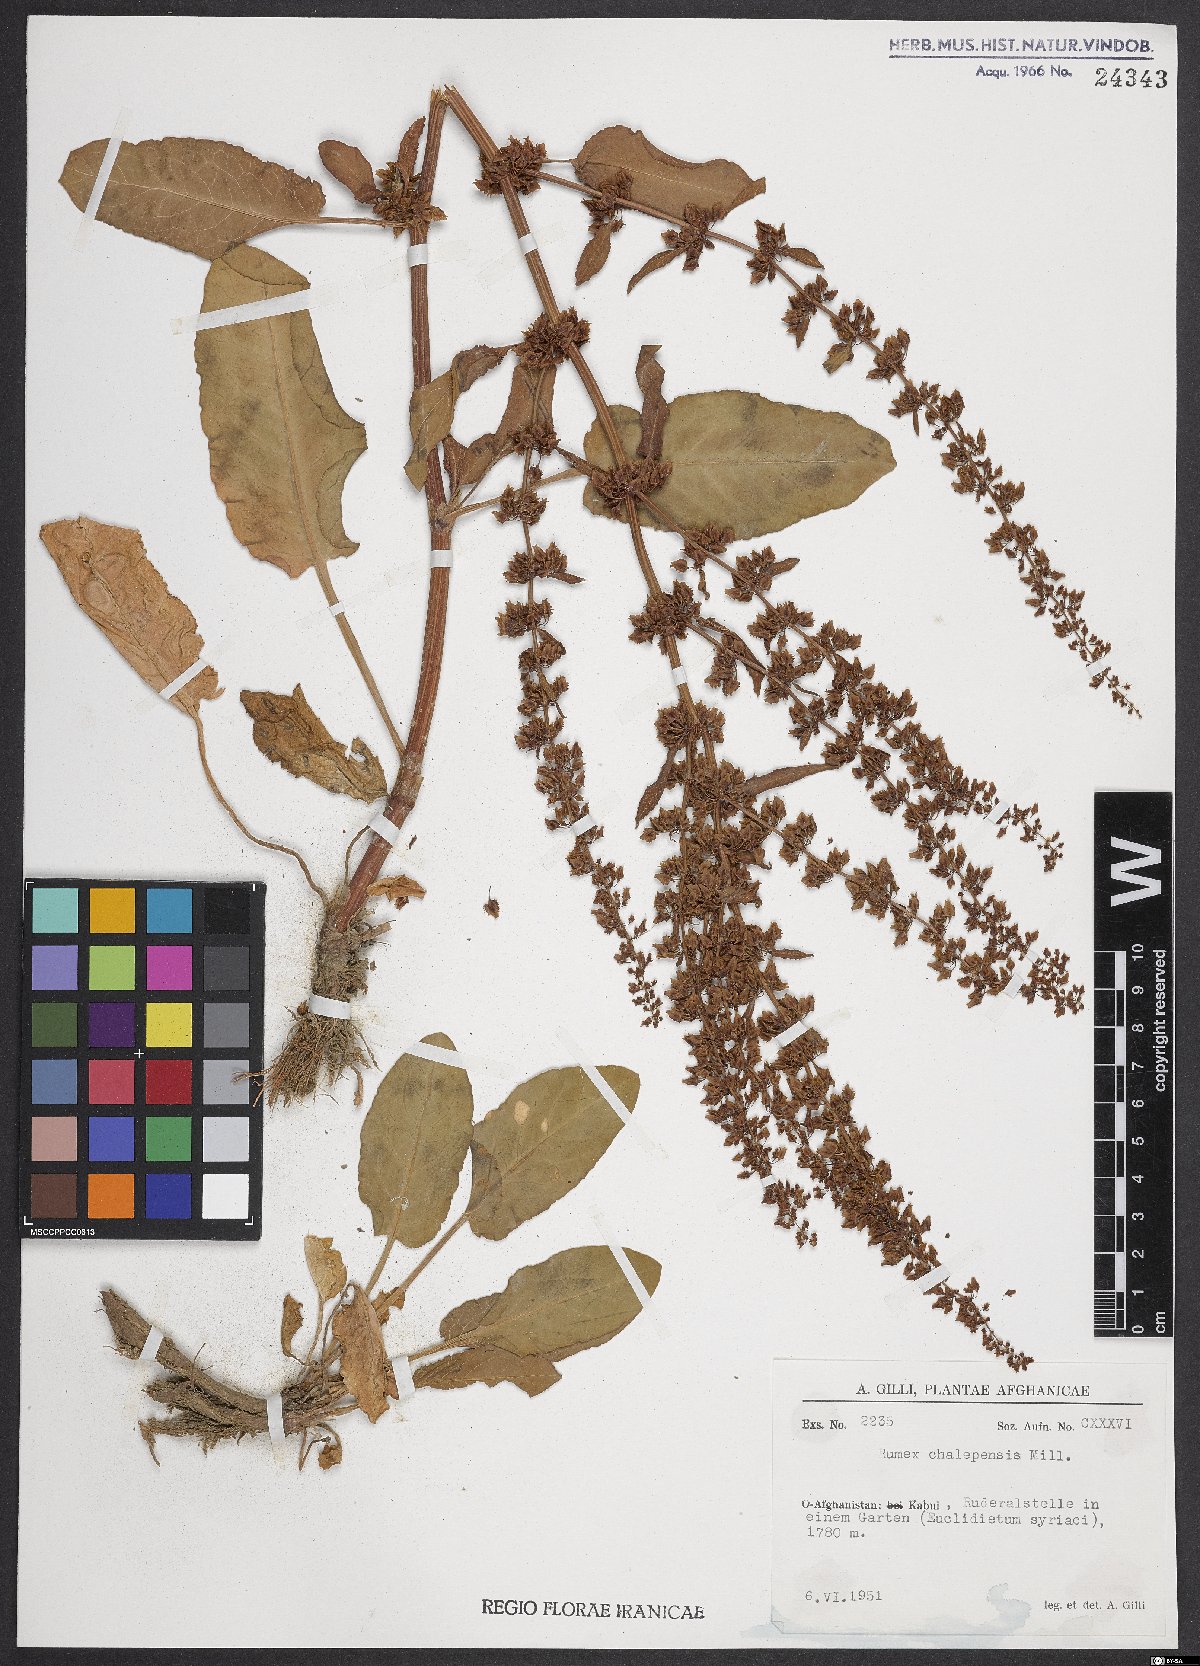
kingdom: Plantae
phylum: Tracheophyta
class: Magnoliopsida
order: Caryophyllales
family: Polygonaceae
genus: Rumex
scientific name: Rumex chalepensis
